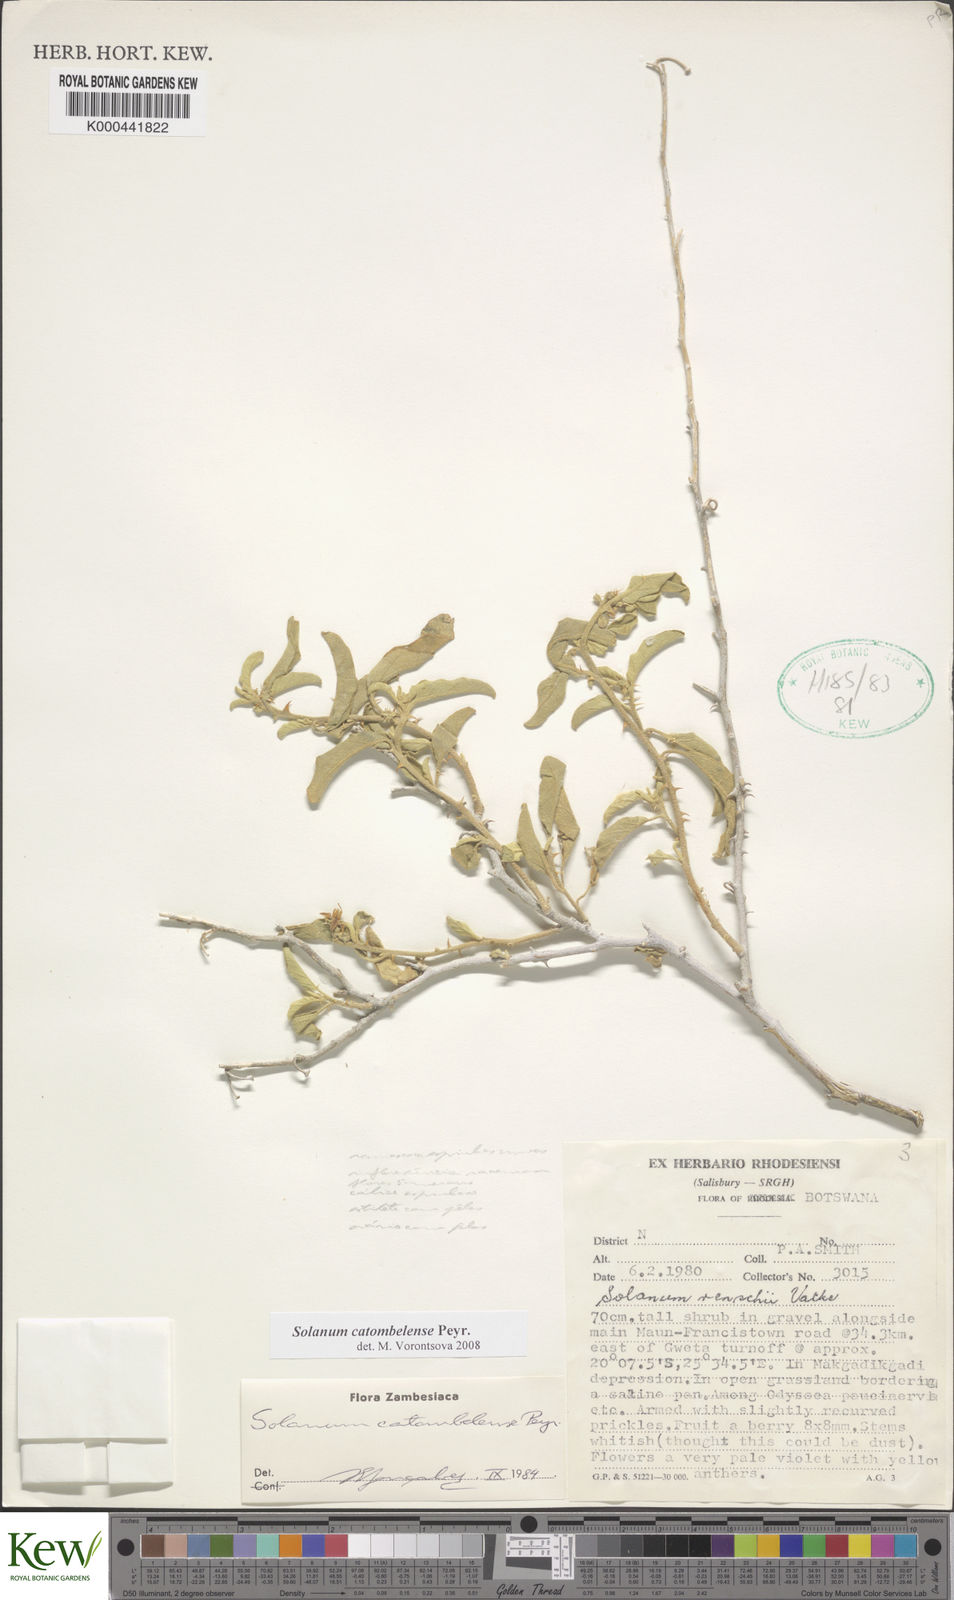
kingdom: Plantae
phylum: Tracheophyta
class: Magnoliopsida
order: Solanales
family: Solanaceae
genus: Solanum
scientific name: Solanum catombelense
